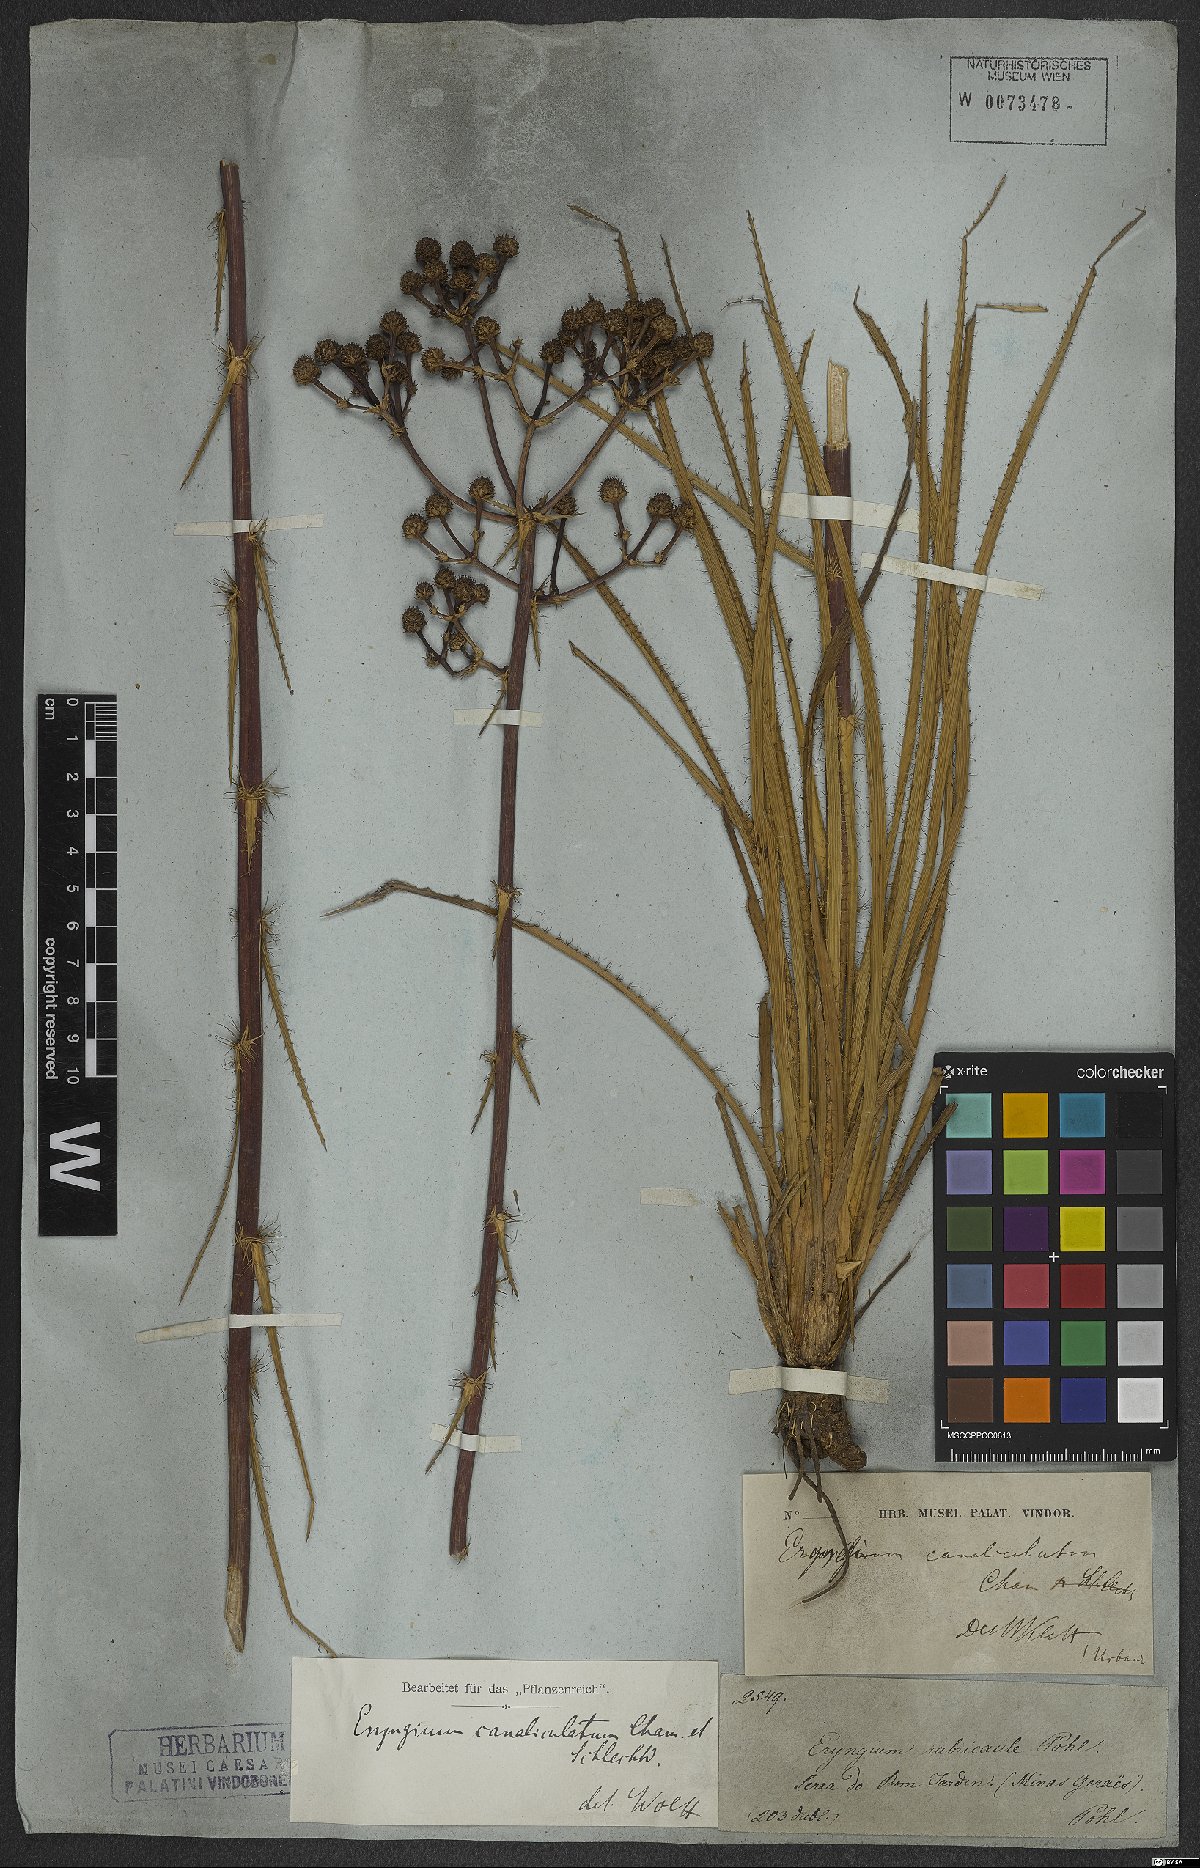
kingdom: Plantae
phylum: Tracheophyta
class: Magnoliopsida
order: Apiales
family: Apiaceae
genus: Eryngium
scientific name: Eryngium canaliculatum
